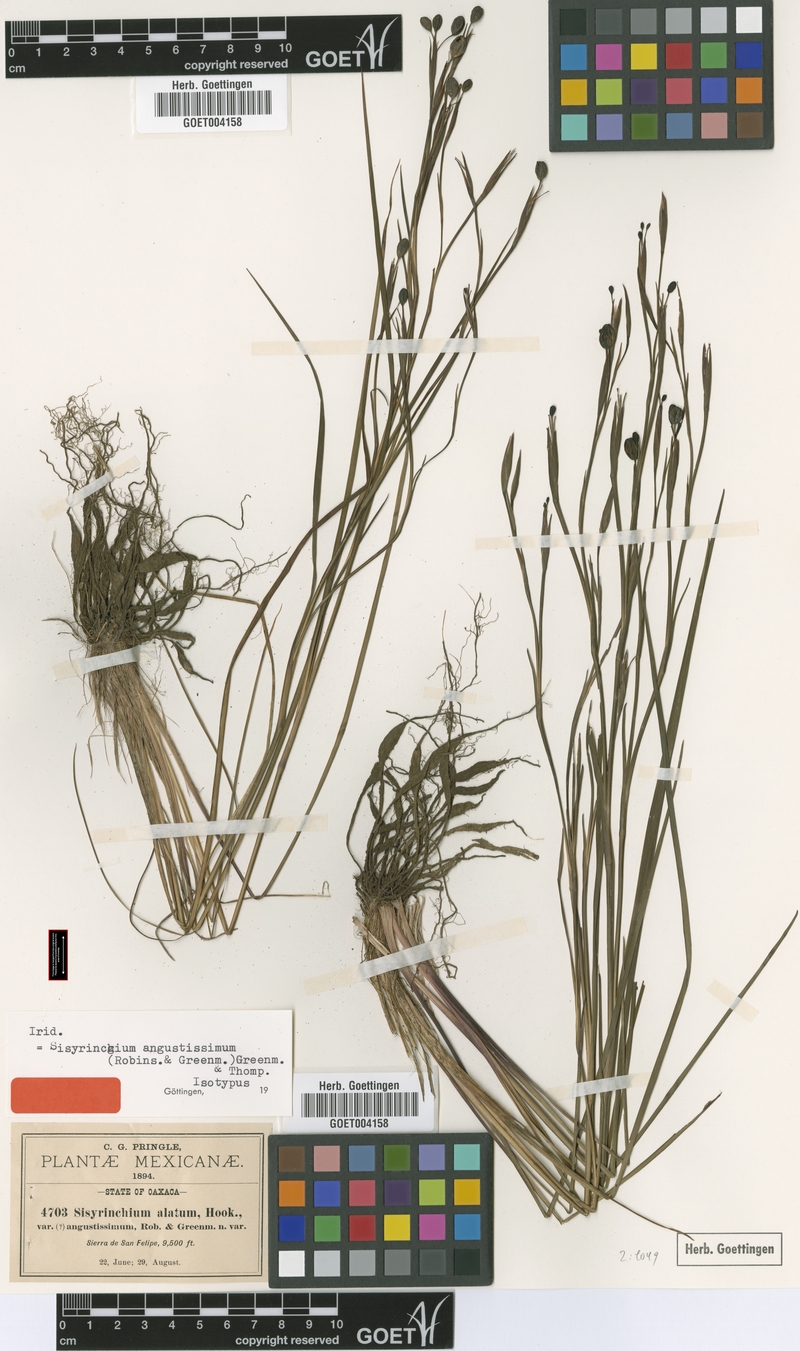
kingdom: Plantae
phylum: Tracheophyta
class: Liliopsida
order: Asparagales
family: Iridaceae
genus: Sisyrinchium
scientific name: Sisyrinchium angustissimum
